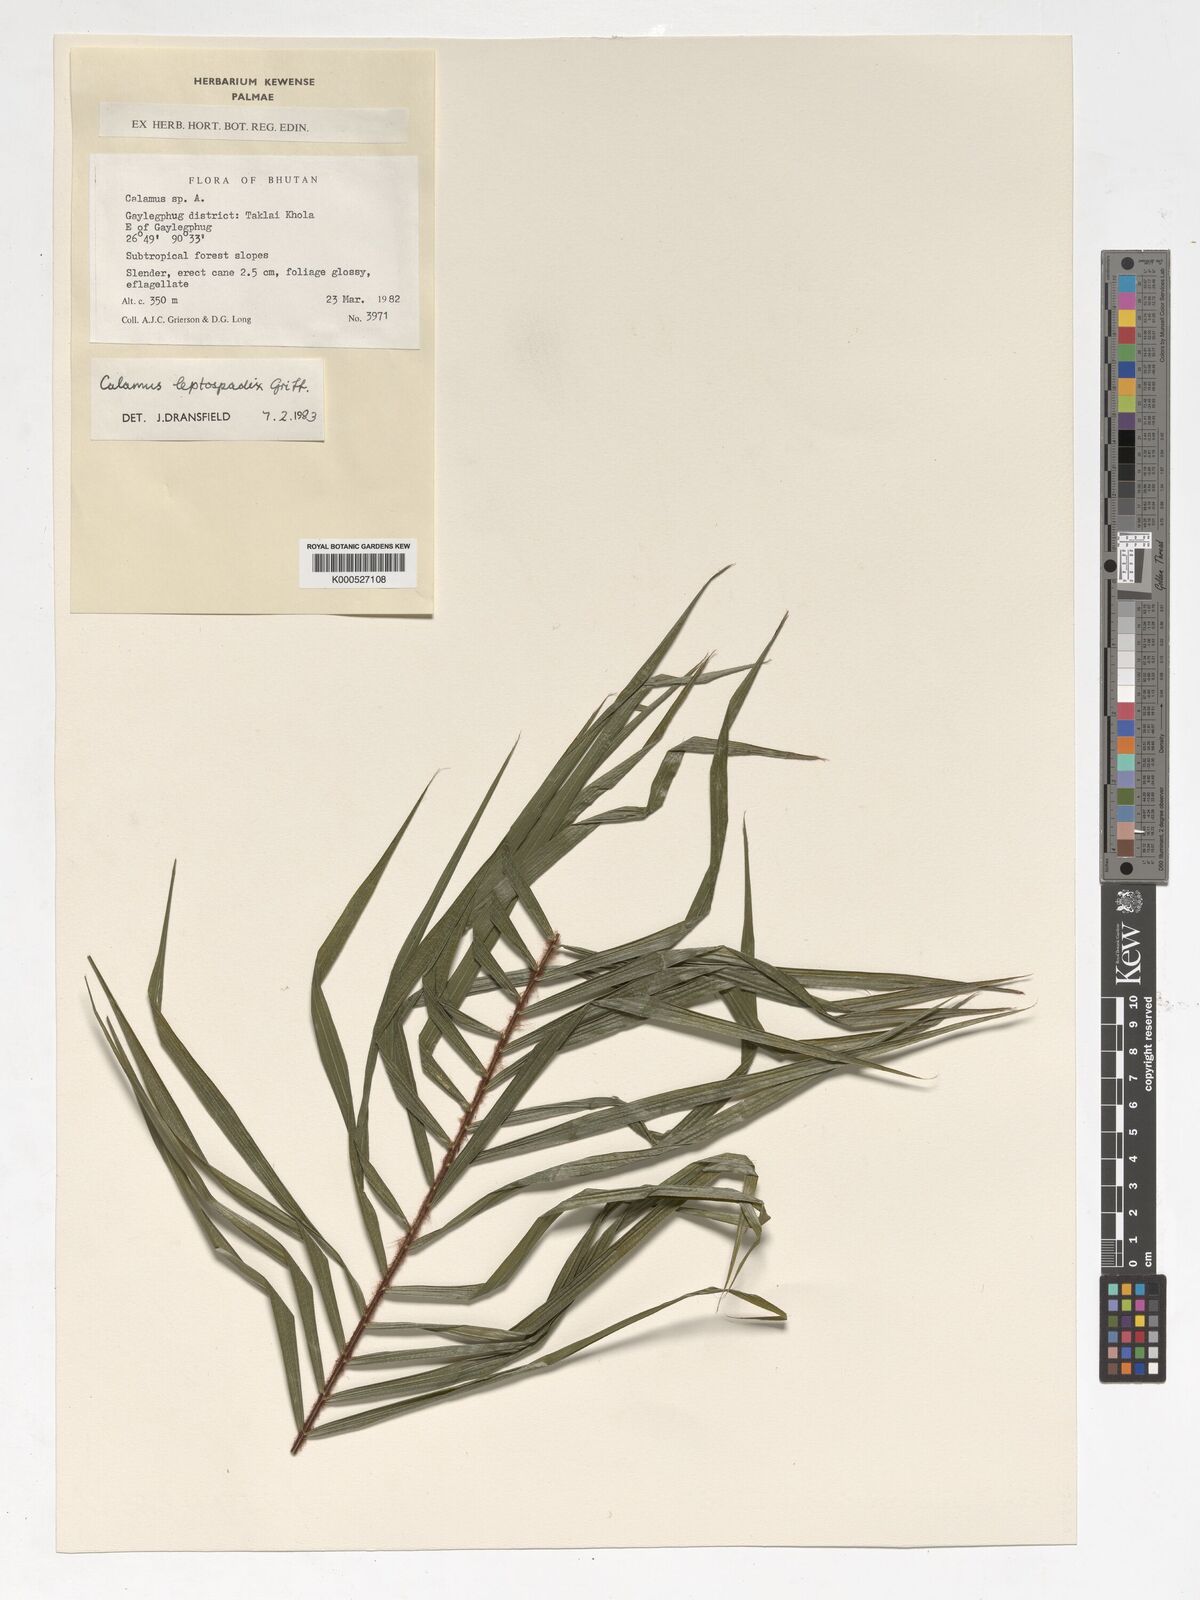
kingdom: Plantae
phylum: Tracheophyta
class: Liliopsida
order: Arecales
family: Arecaceae
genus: Calamus
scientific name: Calamus leptospadix
